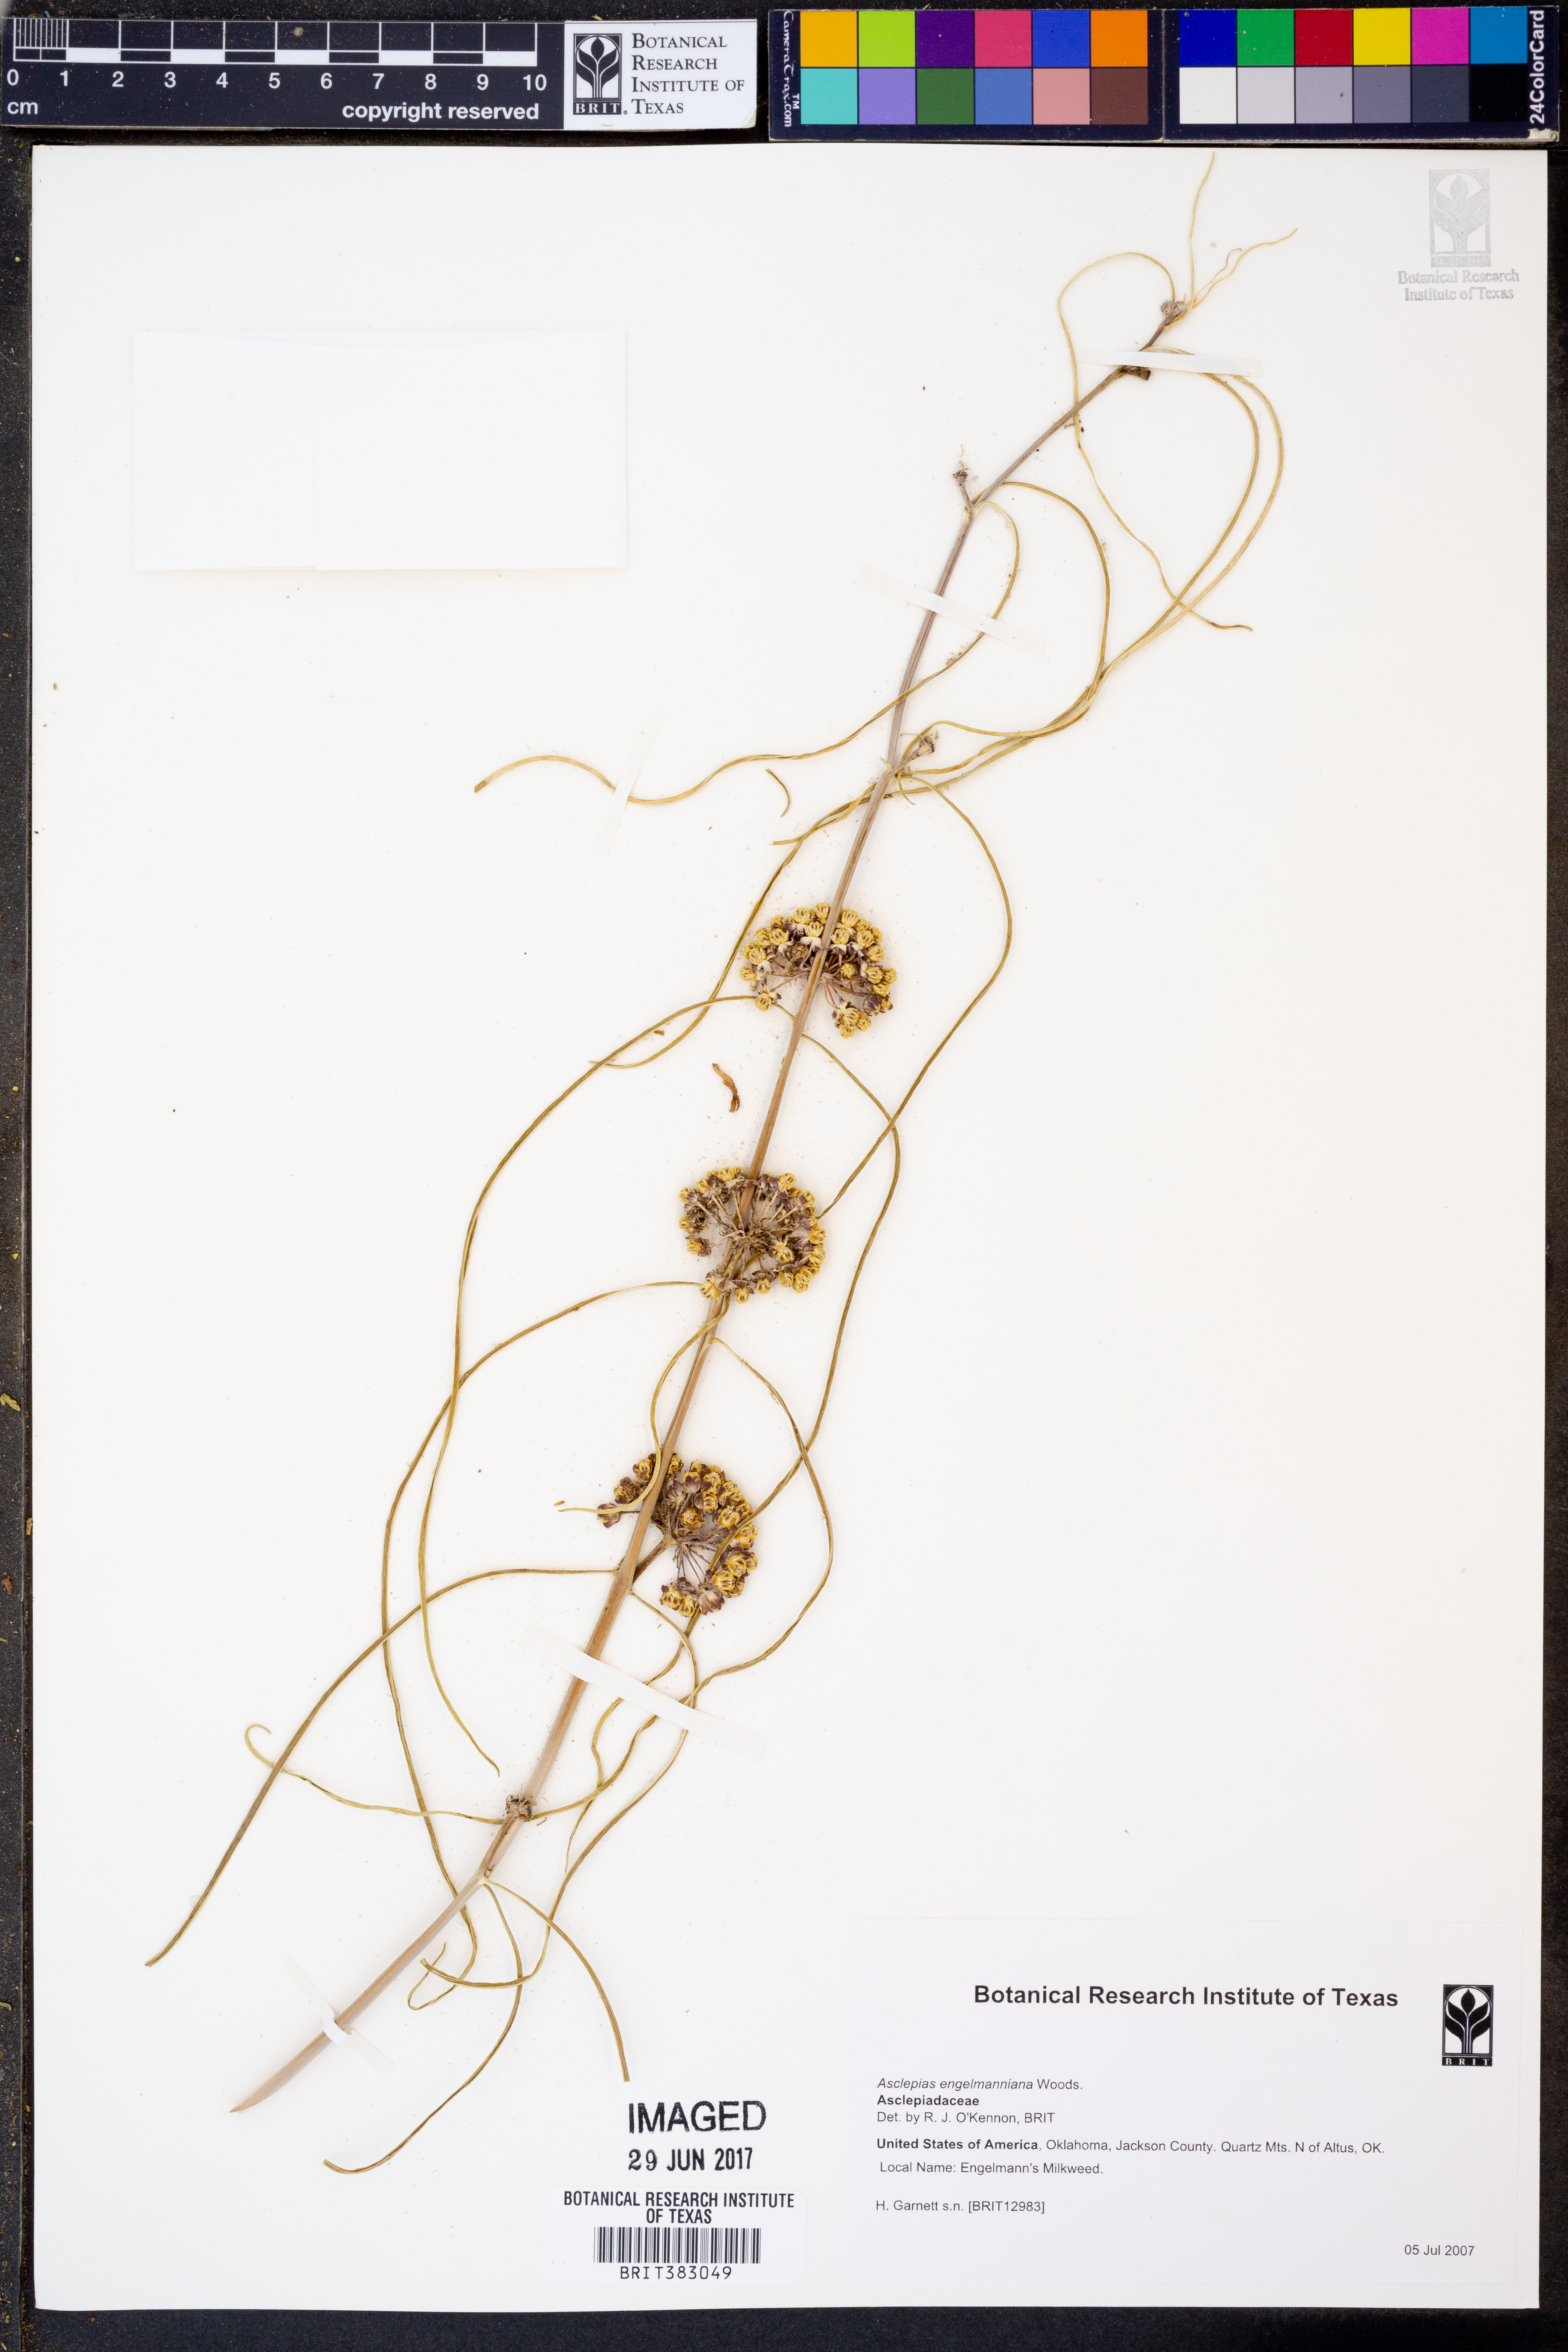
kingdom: Plantae
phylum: Tracheophyta
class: Magnoliopsida
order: Gentianales
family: Apocynaceae
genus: Asclepias
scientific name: Asclepias engelmanniana
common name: Engelmann's milkweed
